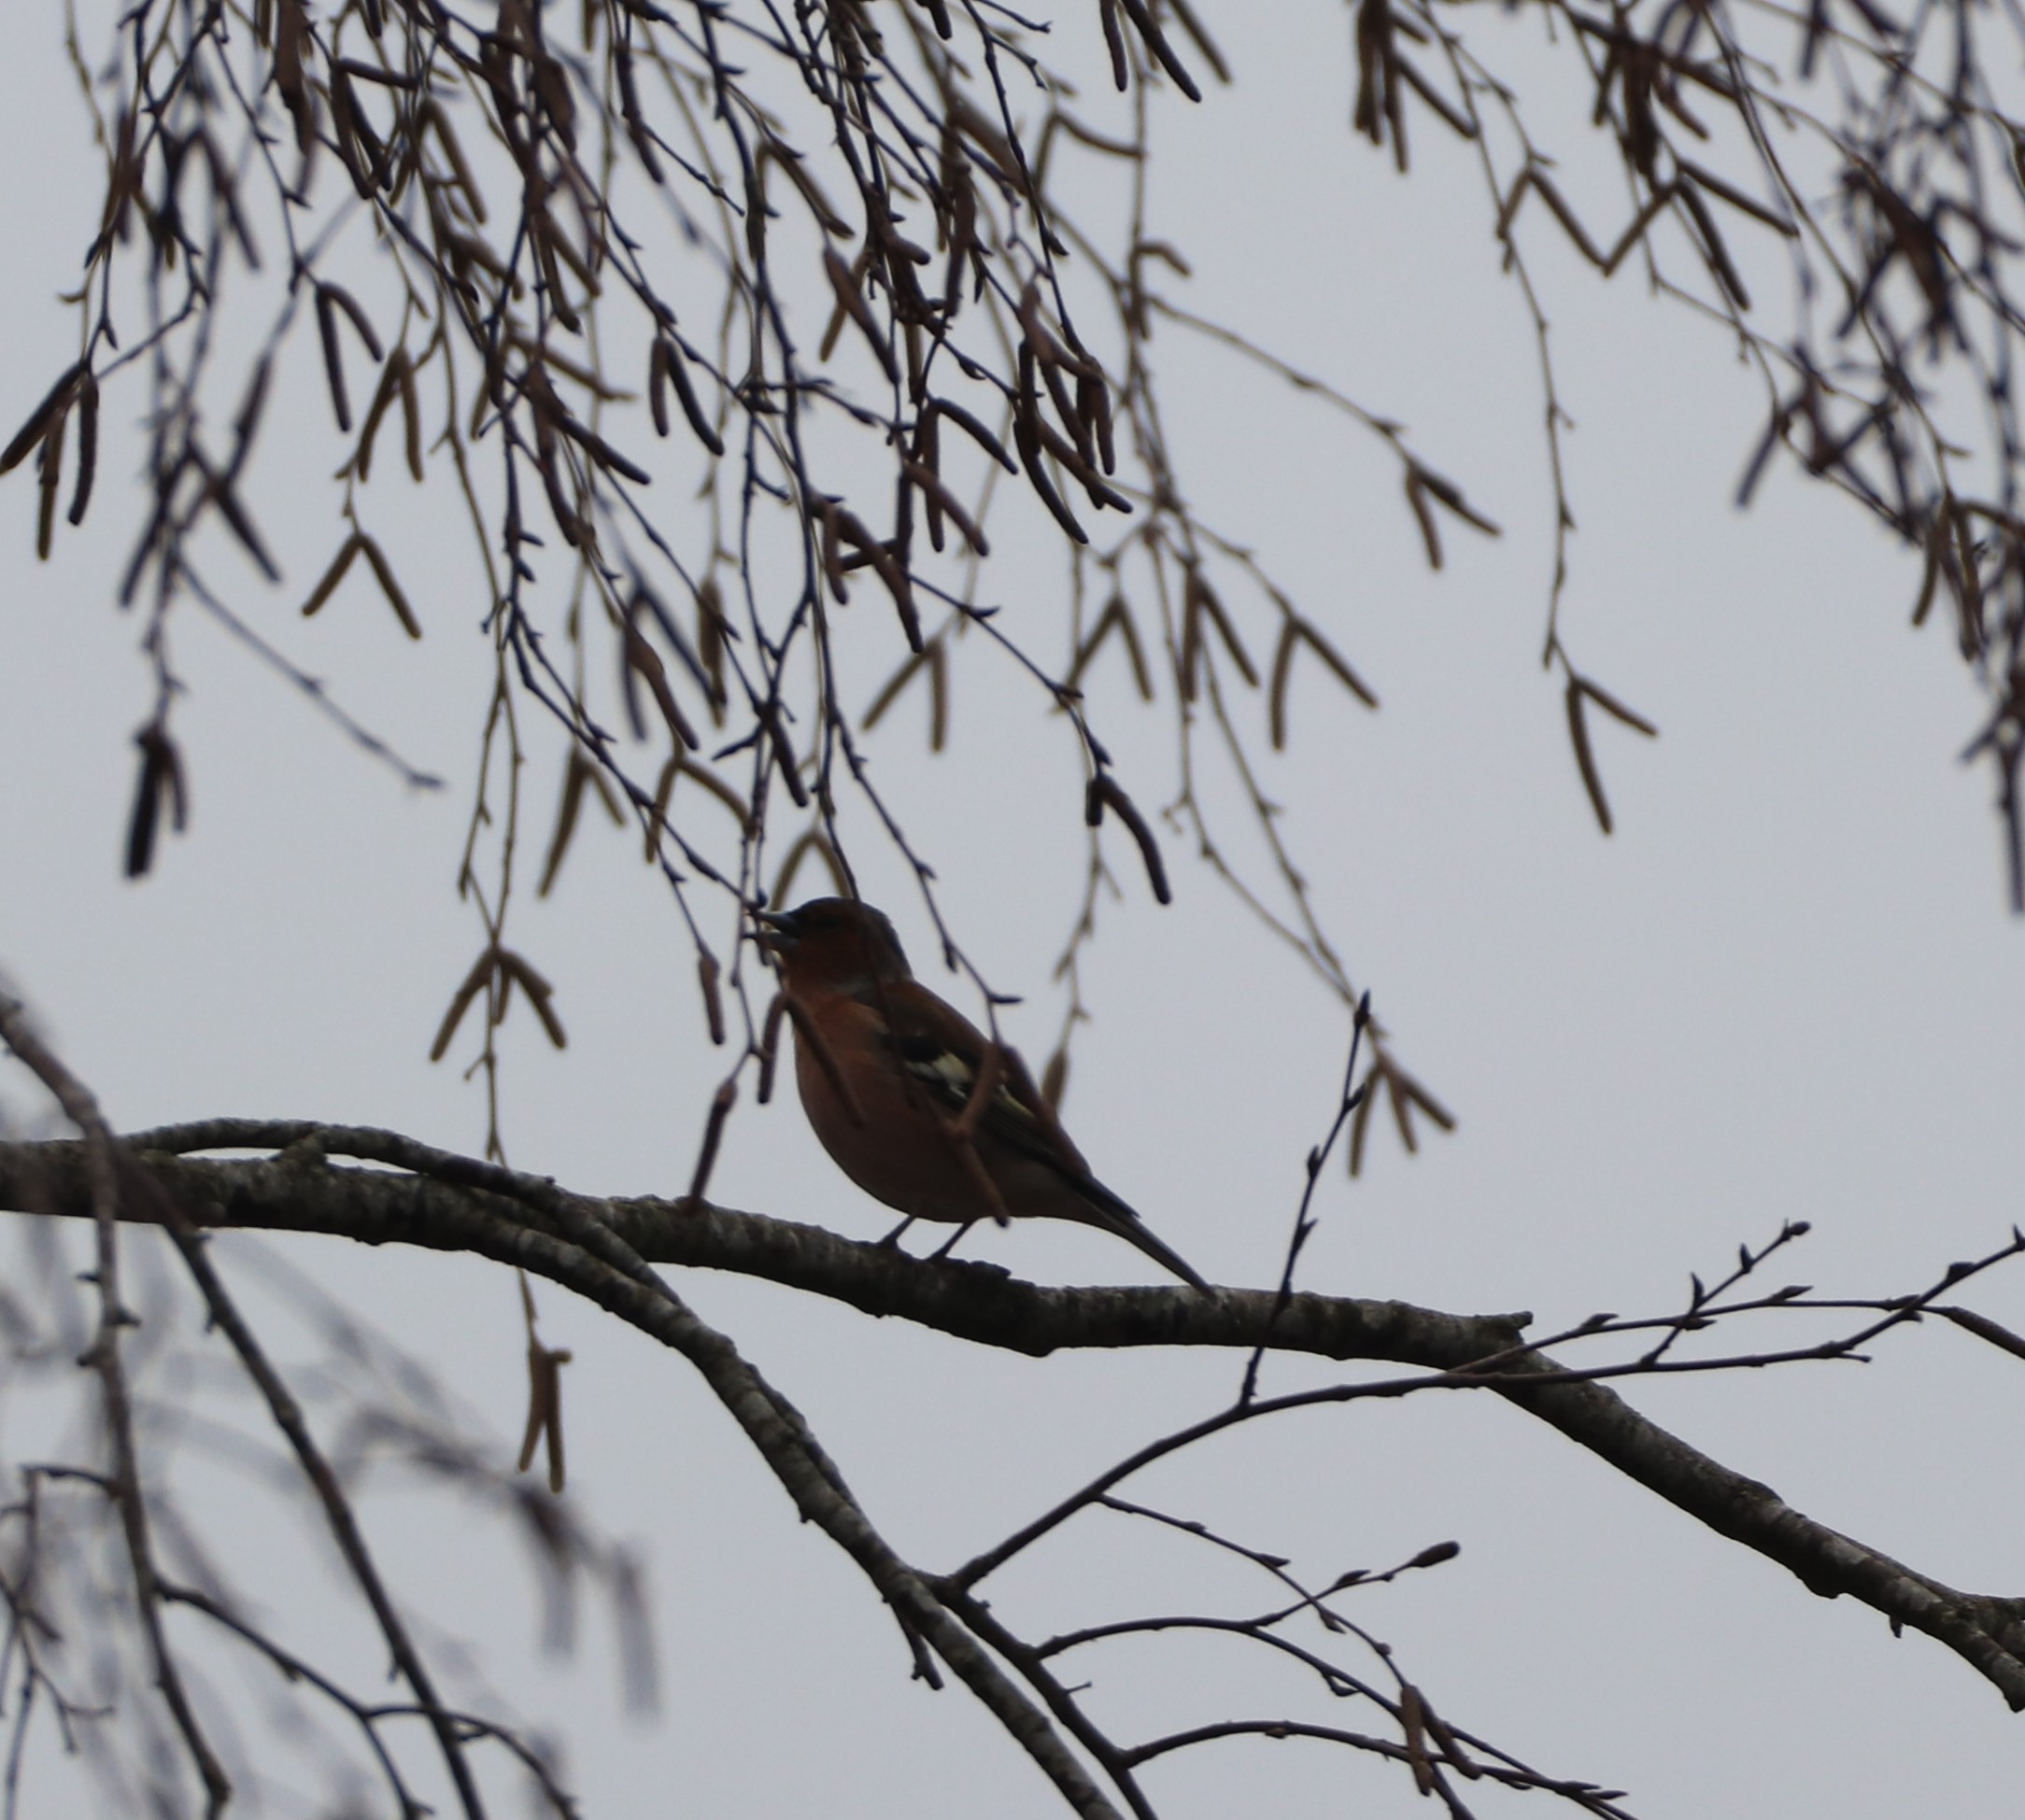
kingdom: Animalia
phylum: Chordata
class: Aves
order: Passeriformes
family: Fringillidae
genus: Fringilla
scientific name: Fringilla coelebs
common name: Bogfinke
